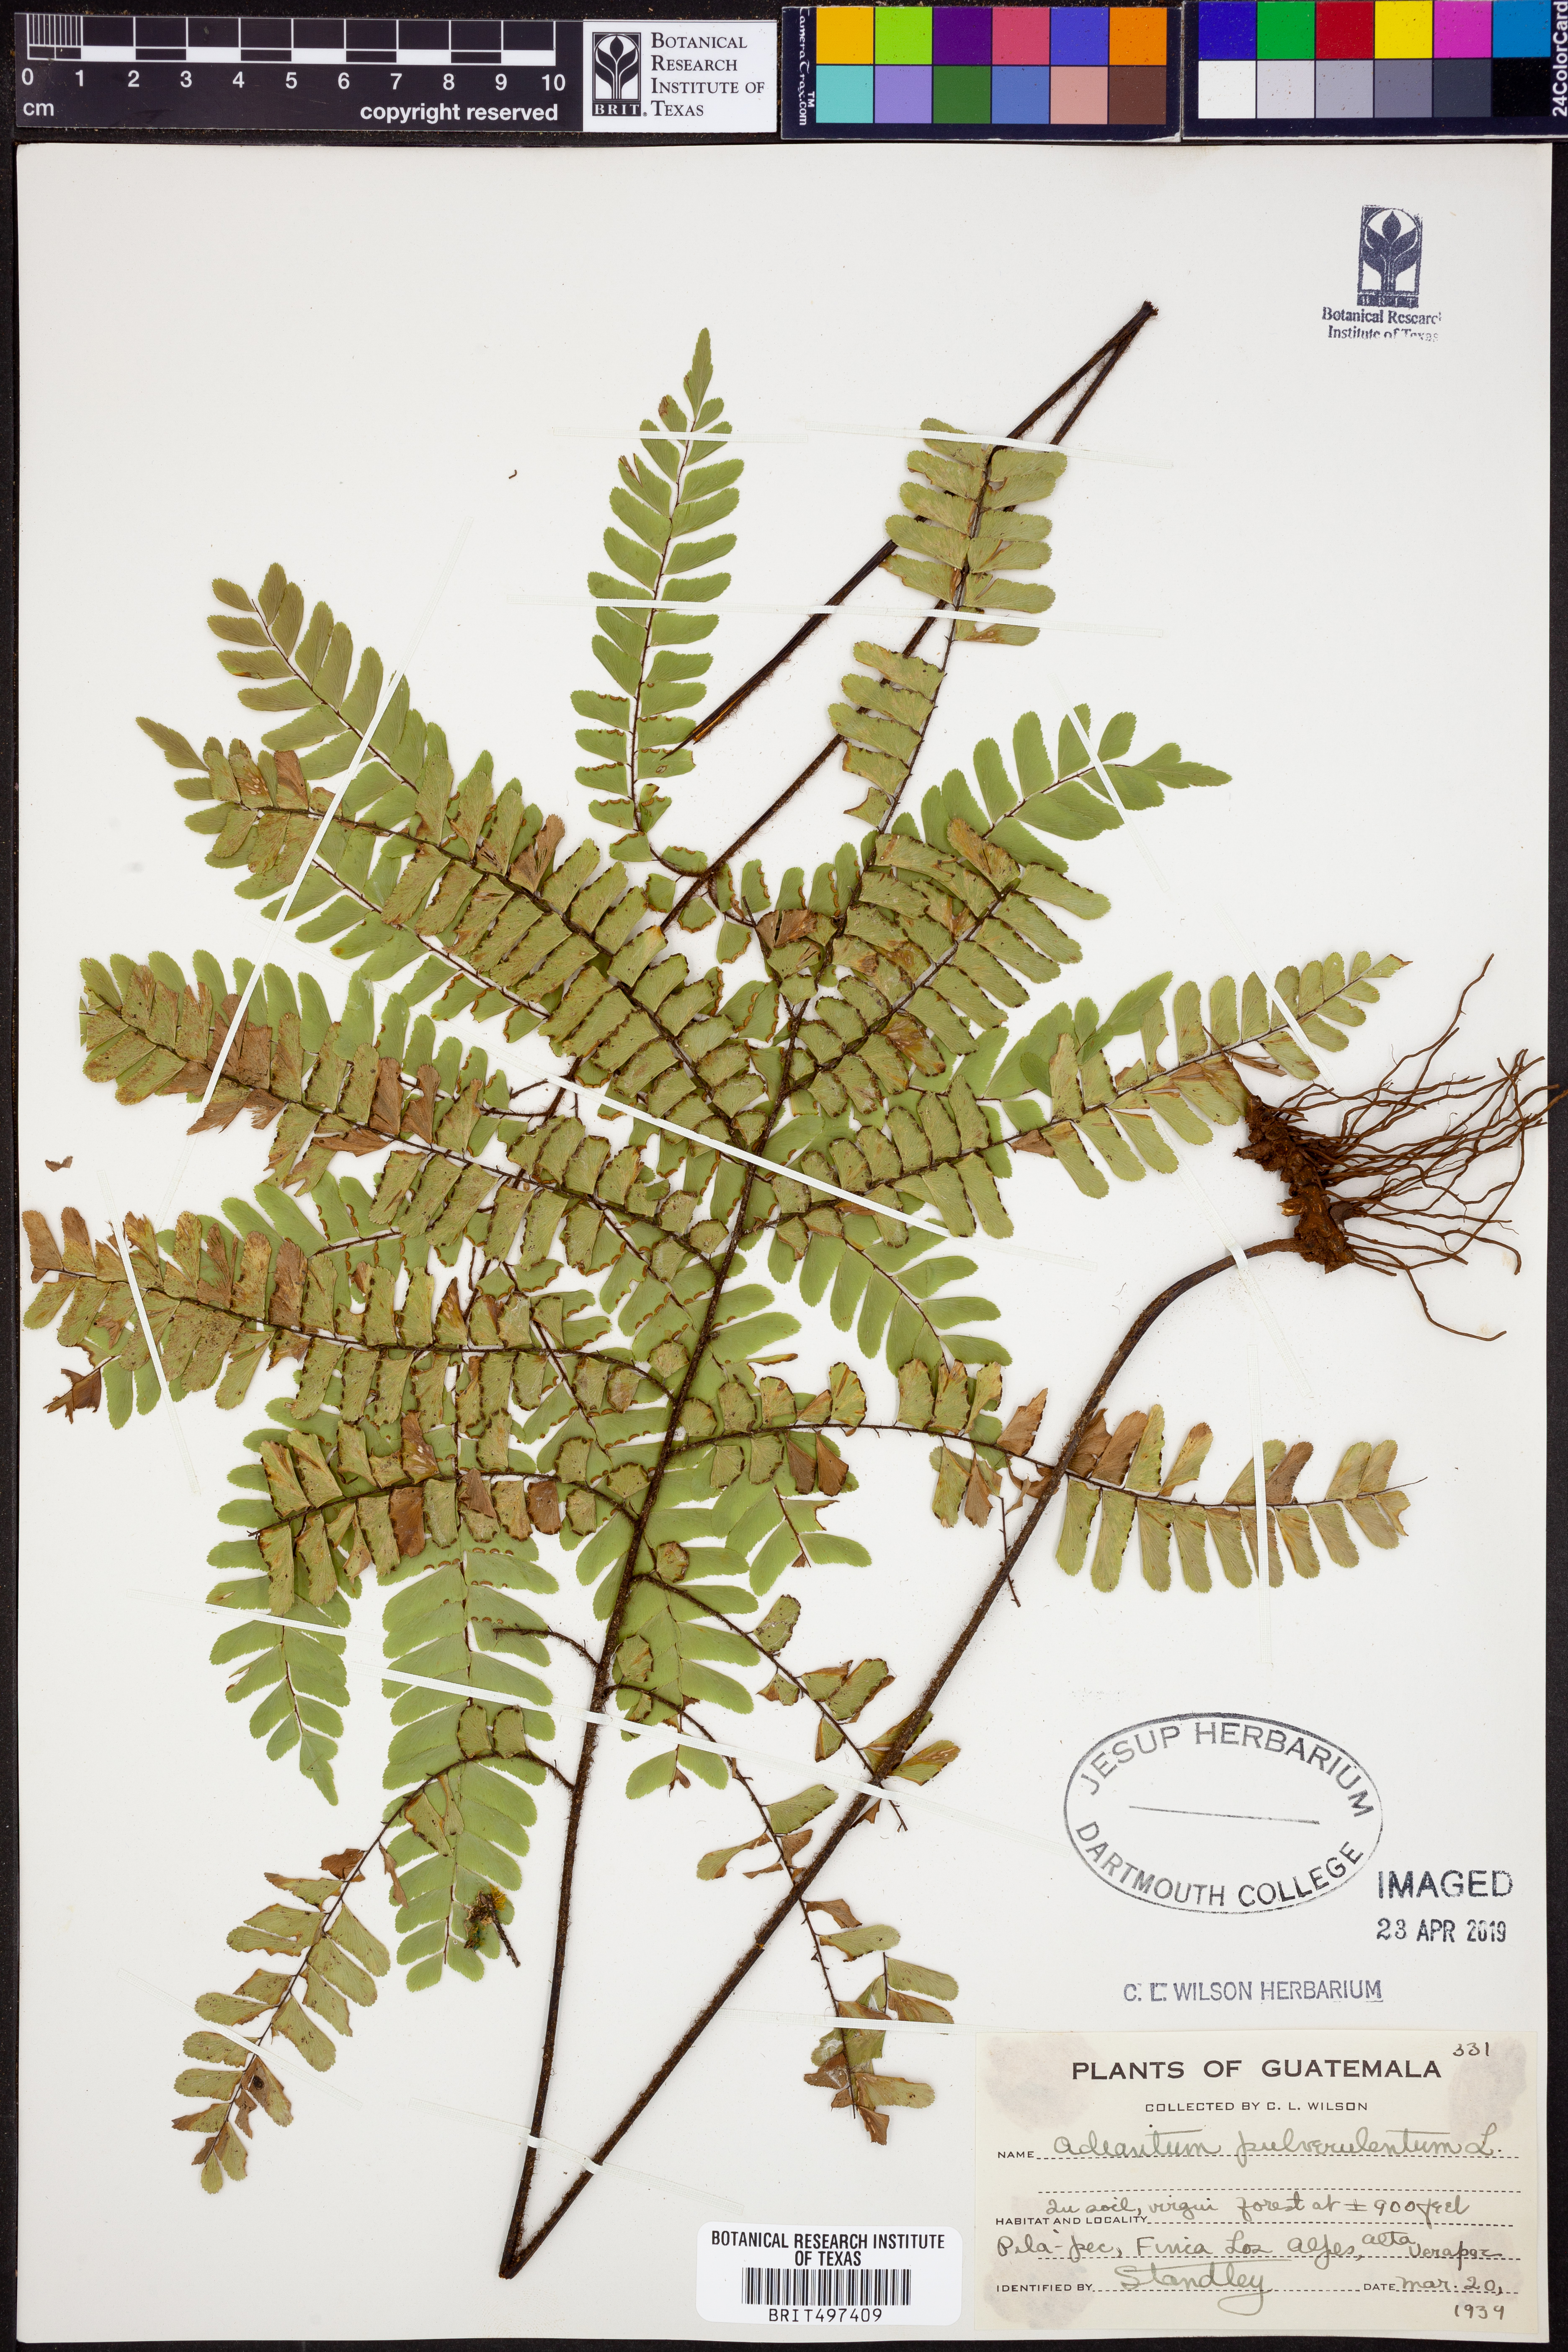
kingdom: Plantae
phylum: Tracheophyta
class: Polypodiopsida
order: Polypodiales
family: Pteridaceae
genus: Adiantum
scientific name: Adiantum pulverulentum
